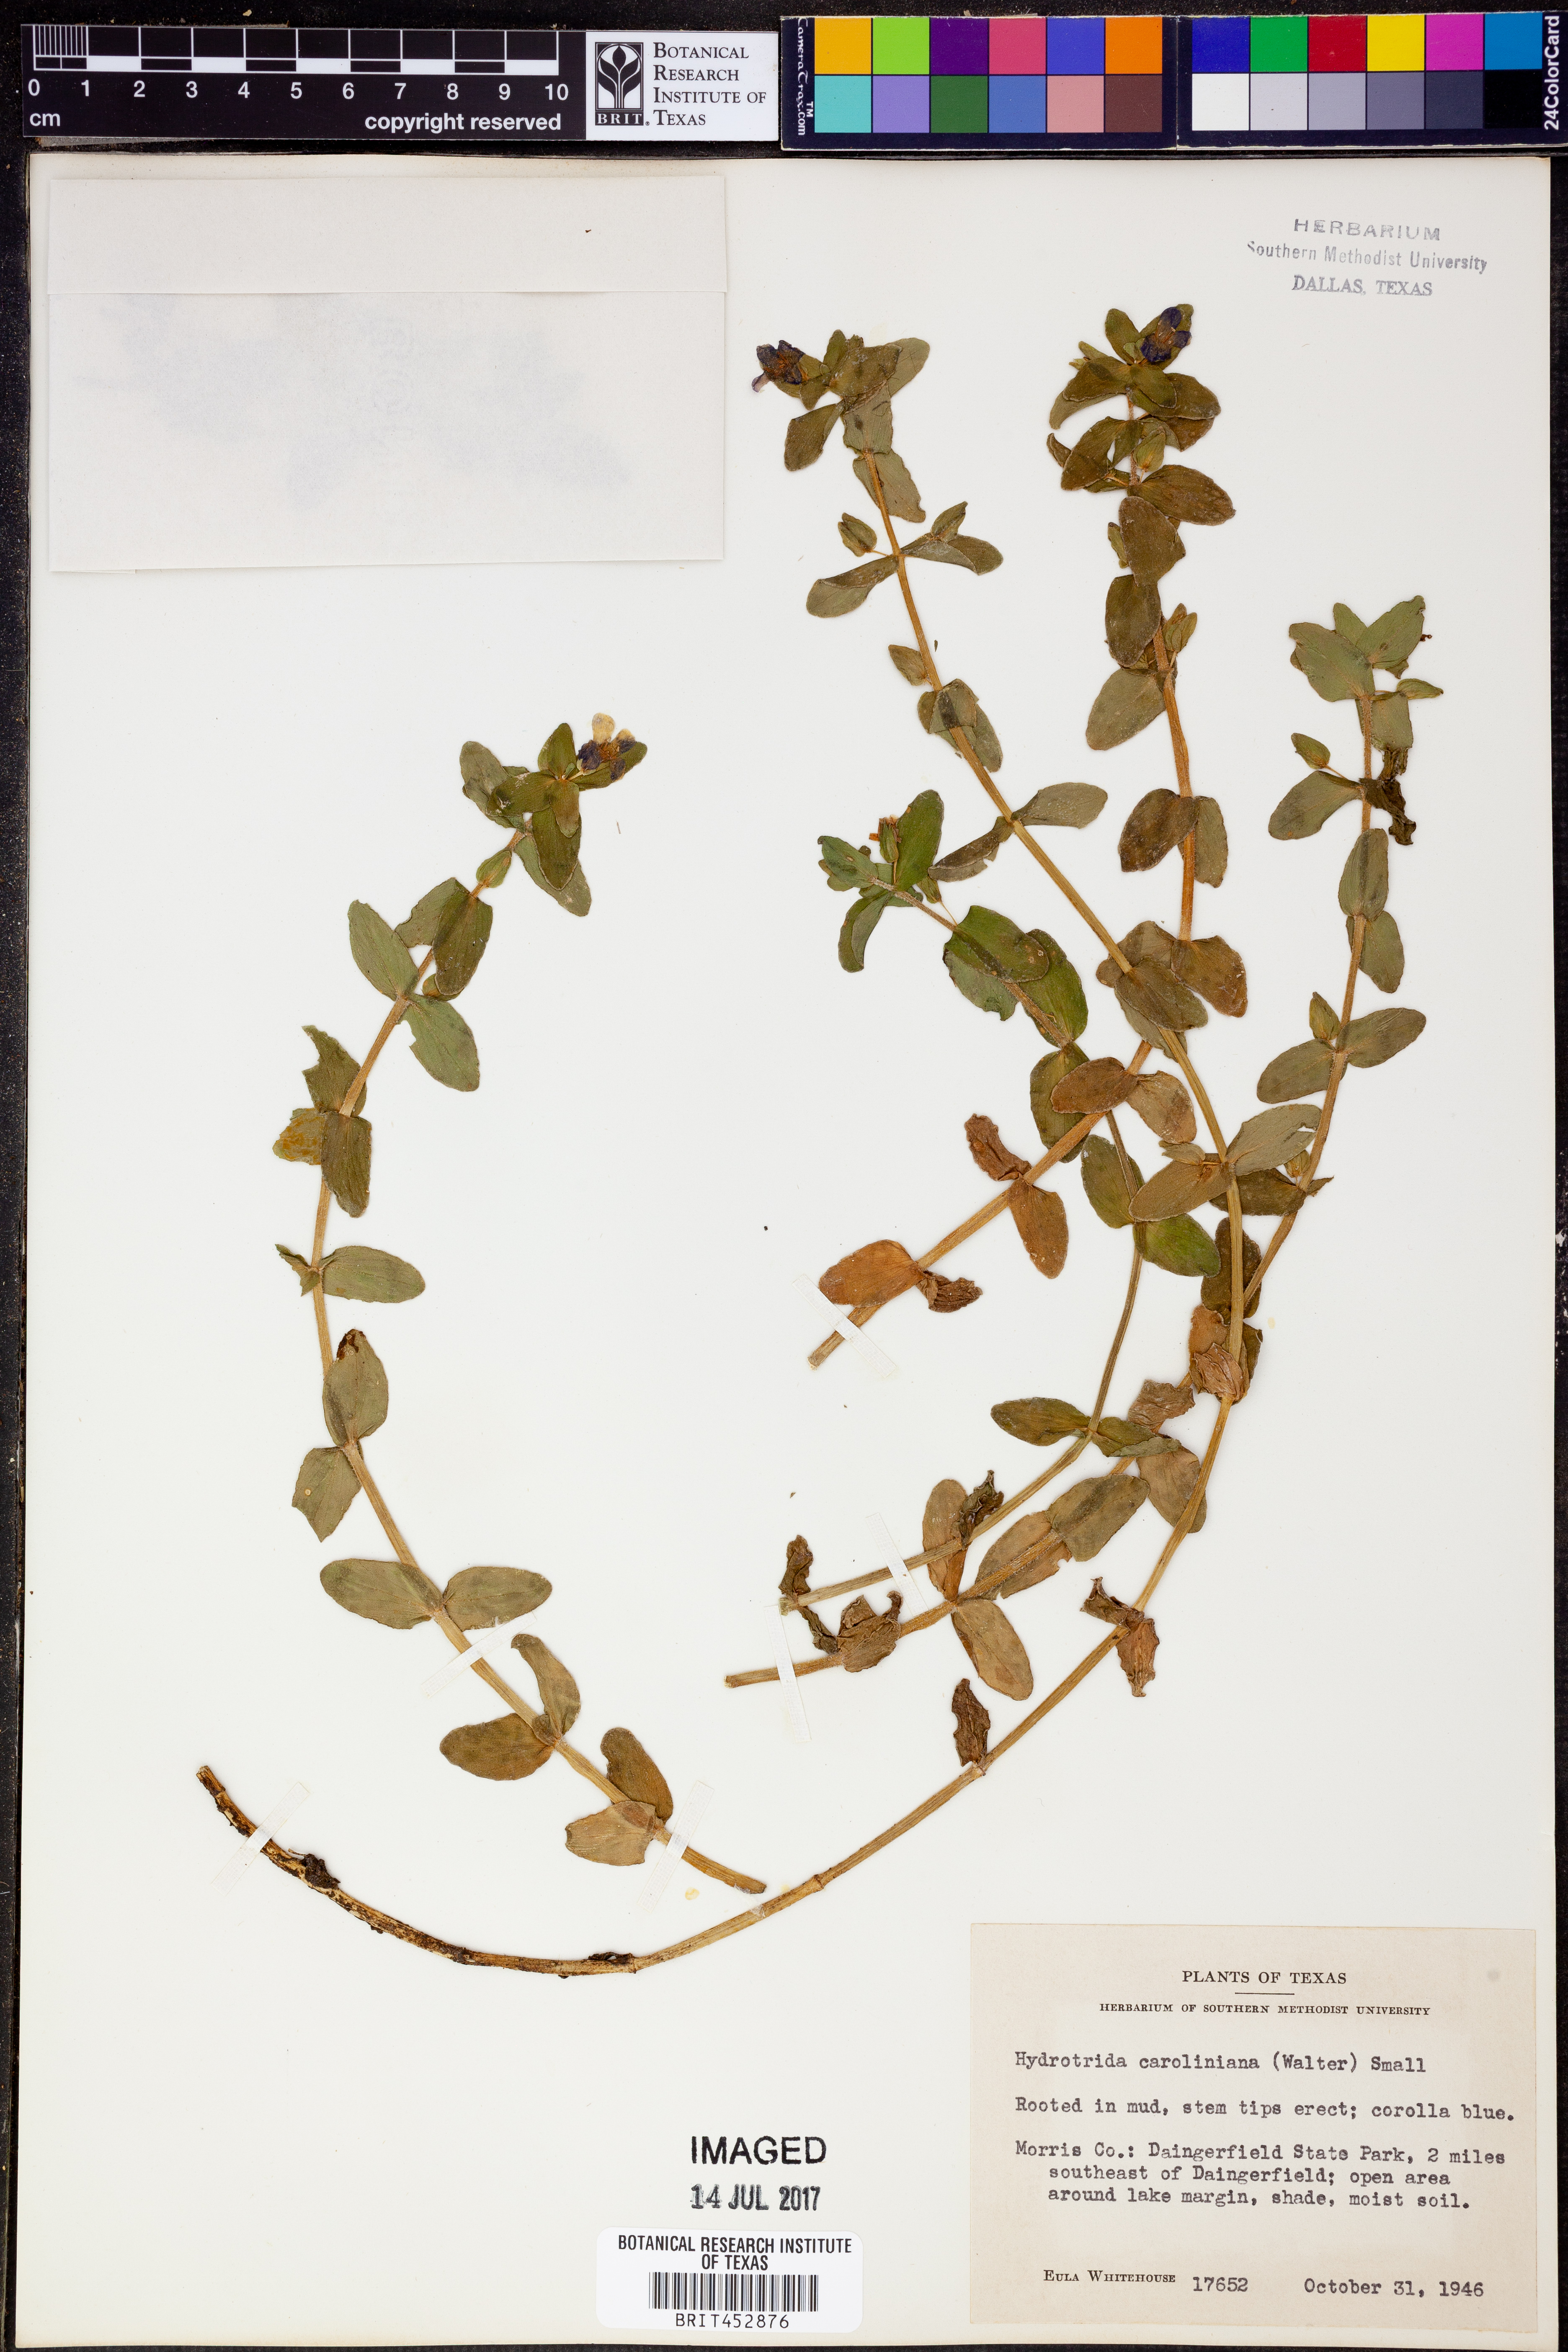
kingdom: Plantae
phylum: Tracheophyta
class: Magnoliopsida
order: Lamiales
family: Plantaginaceae
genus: Bacopa
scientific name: Bacopa caroliniana
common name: Lemon bacopa
